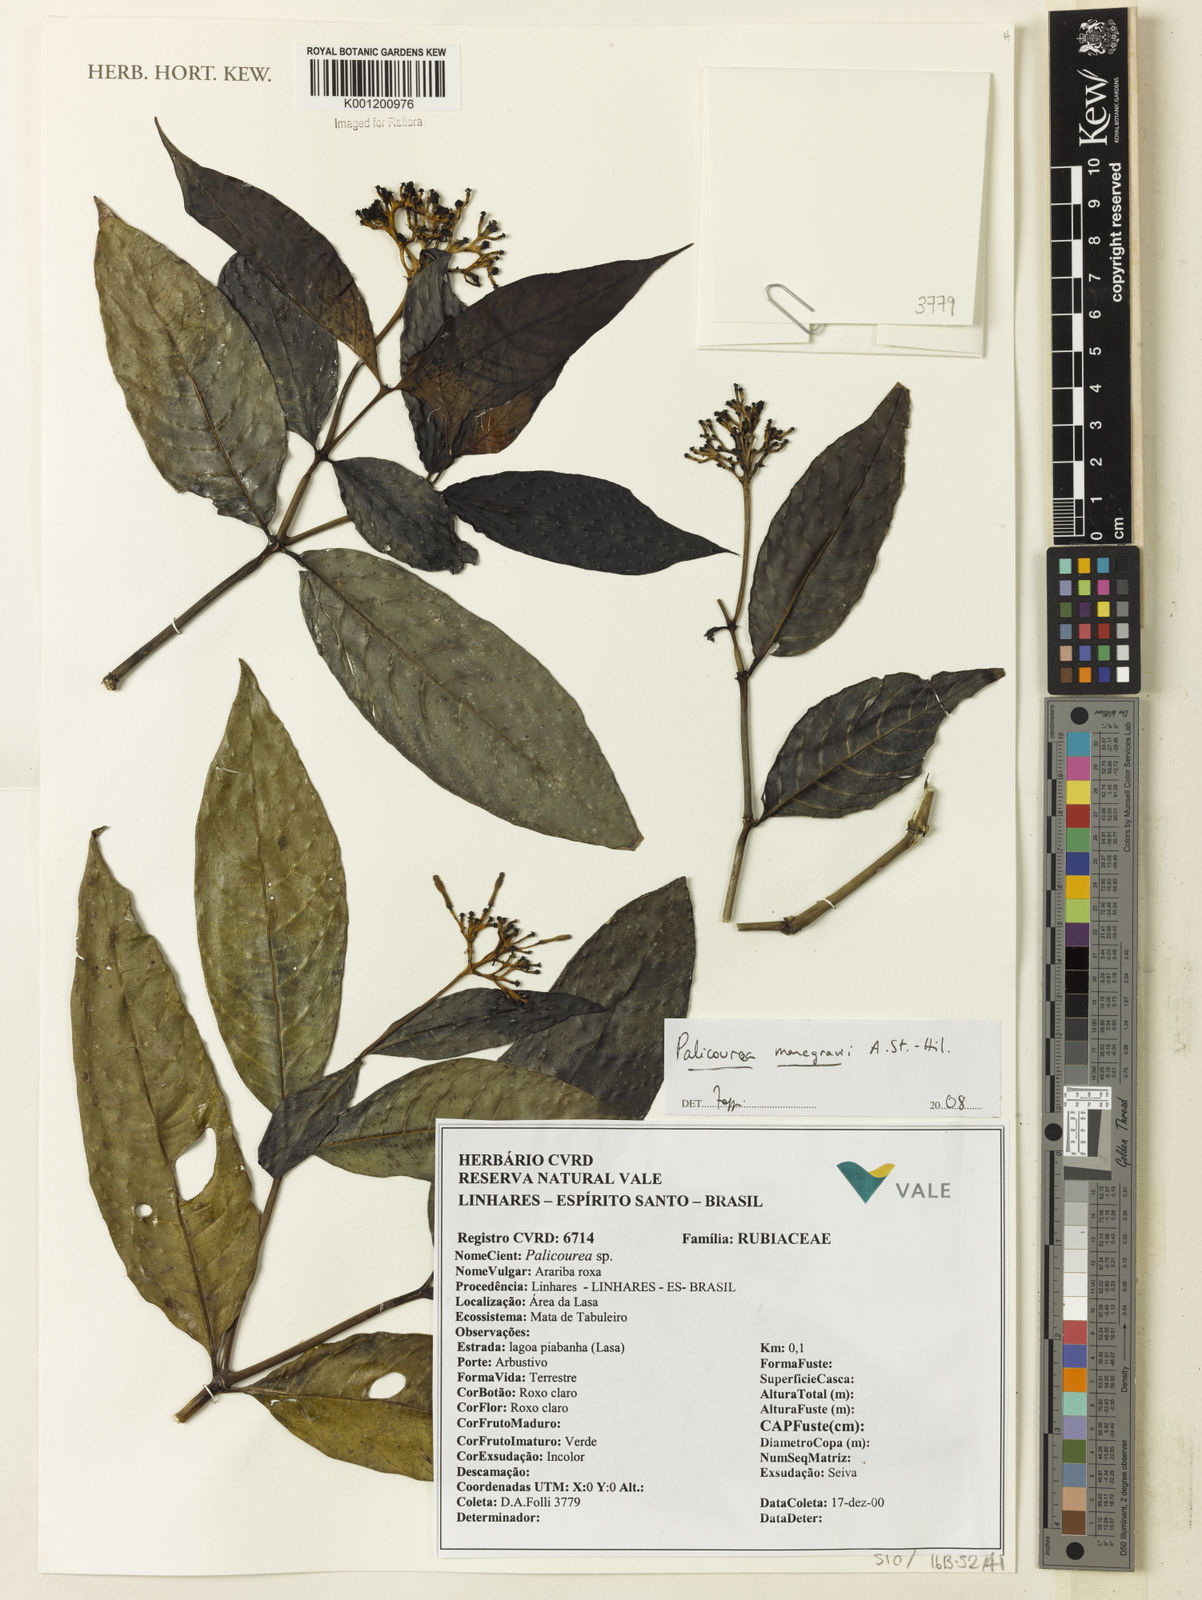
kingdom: Plantae
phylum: Tracheophyta
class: Magnoliopsida
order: Gentianales
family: Rubiaceae
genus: Palicourea
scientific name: Palicourea marcgravii
